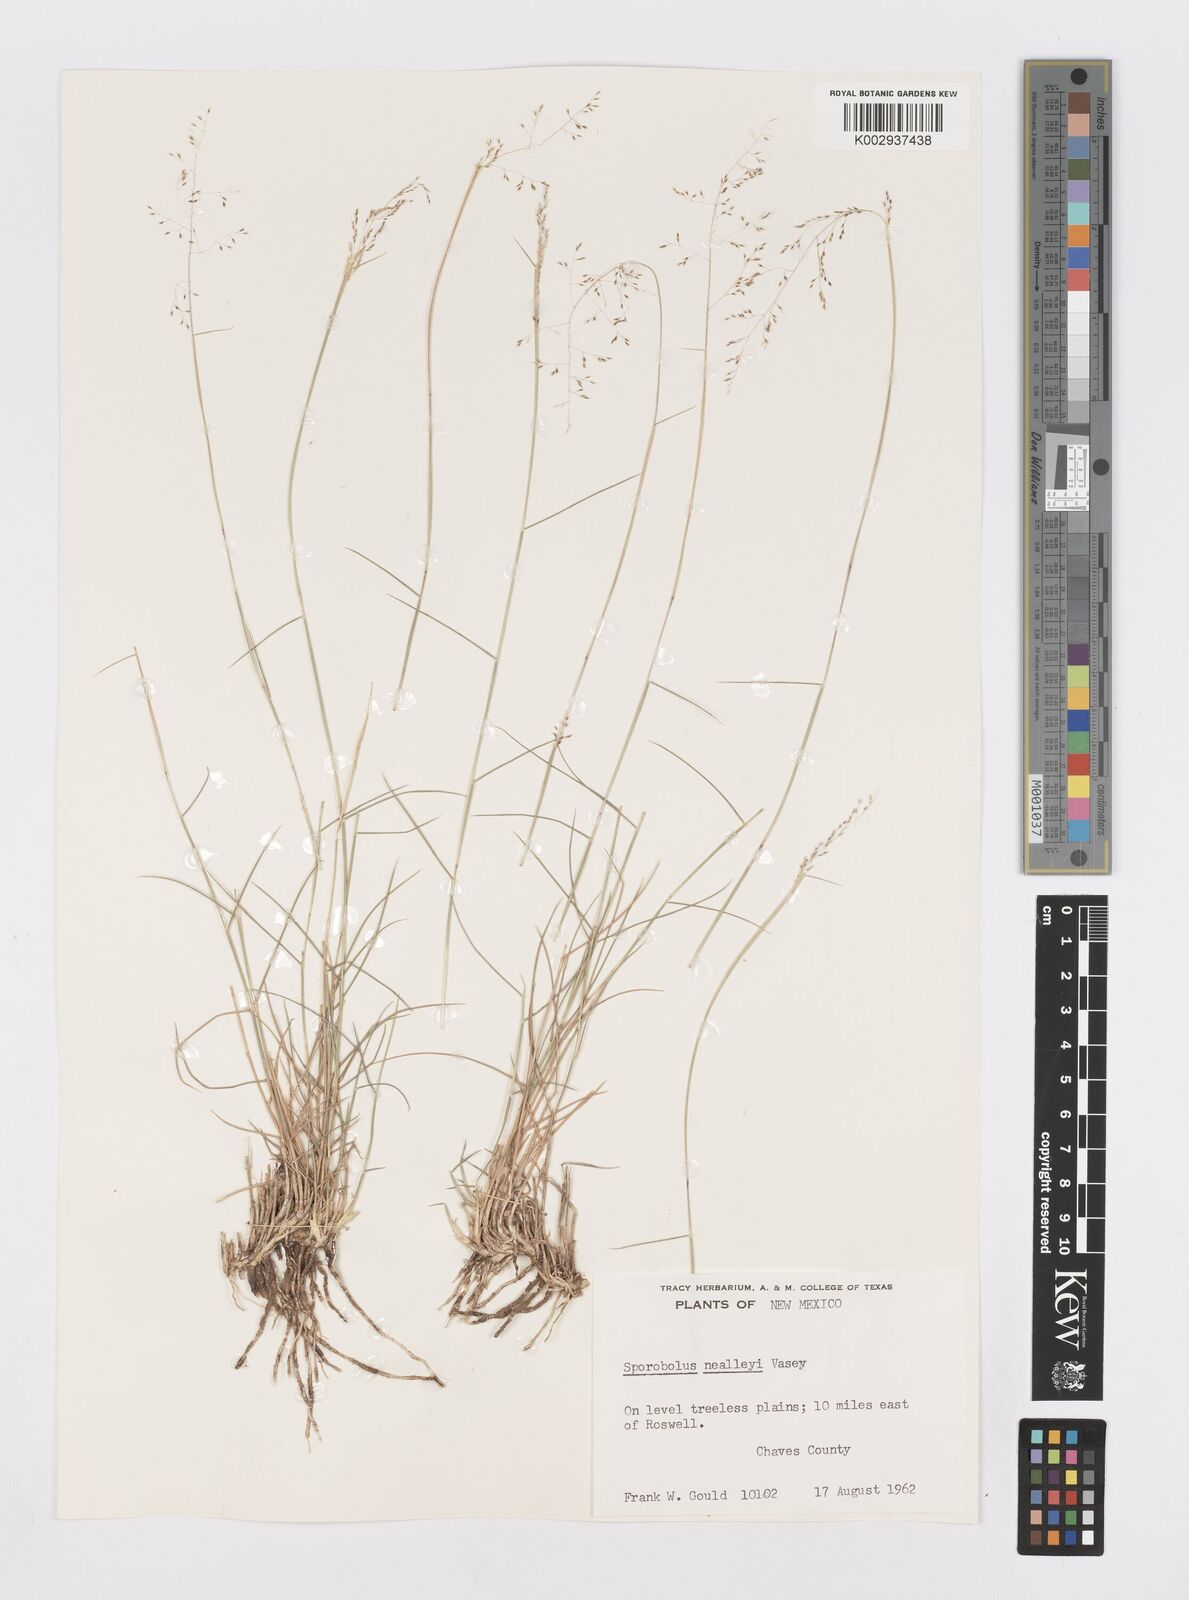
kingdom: Plantae
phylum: Tracheophyta
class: Liliopsida
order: Poales
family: Poaceae
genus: Sporobolus
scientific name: Sporobolus nealleyi
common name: Gyp grass
